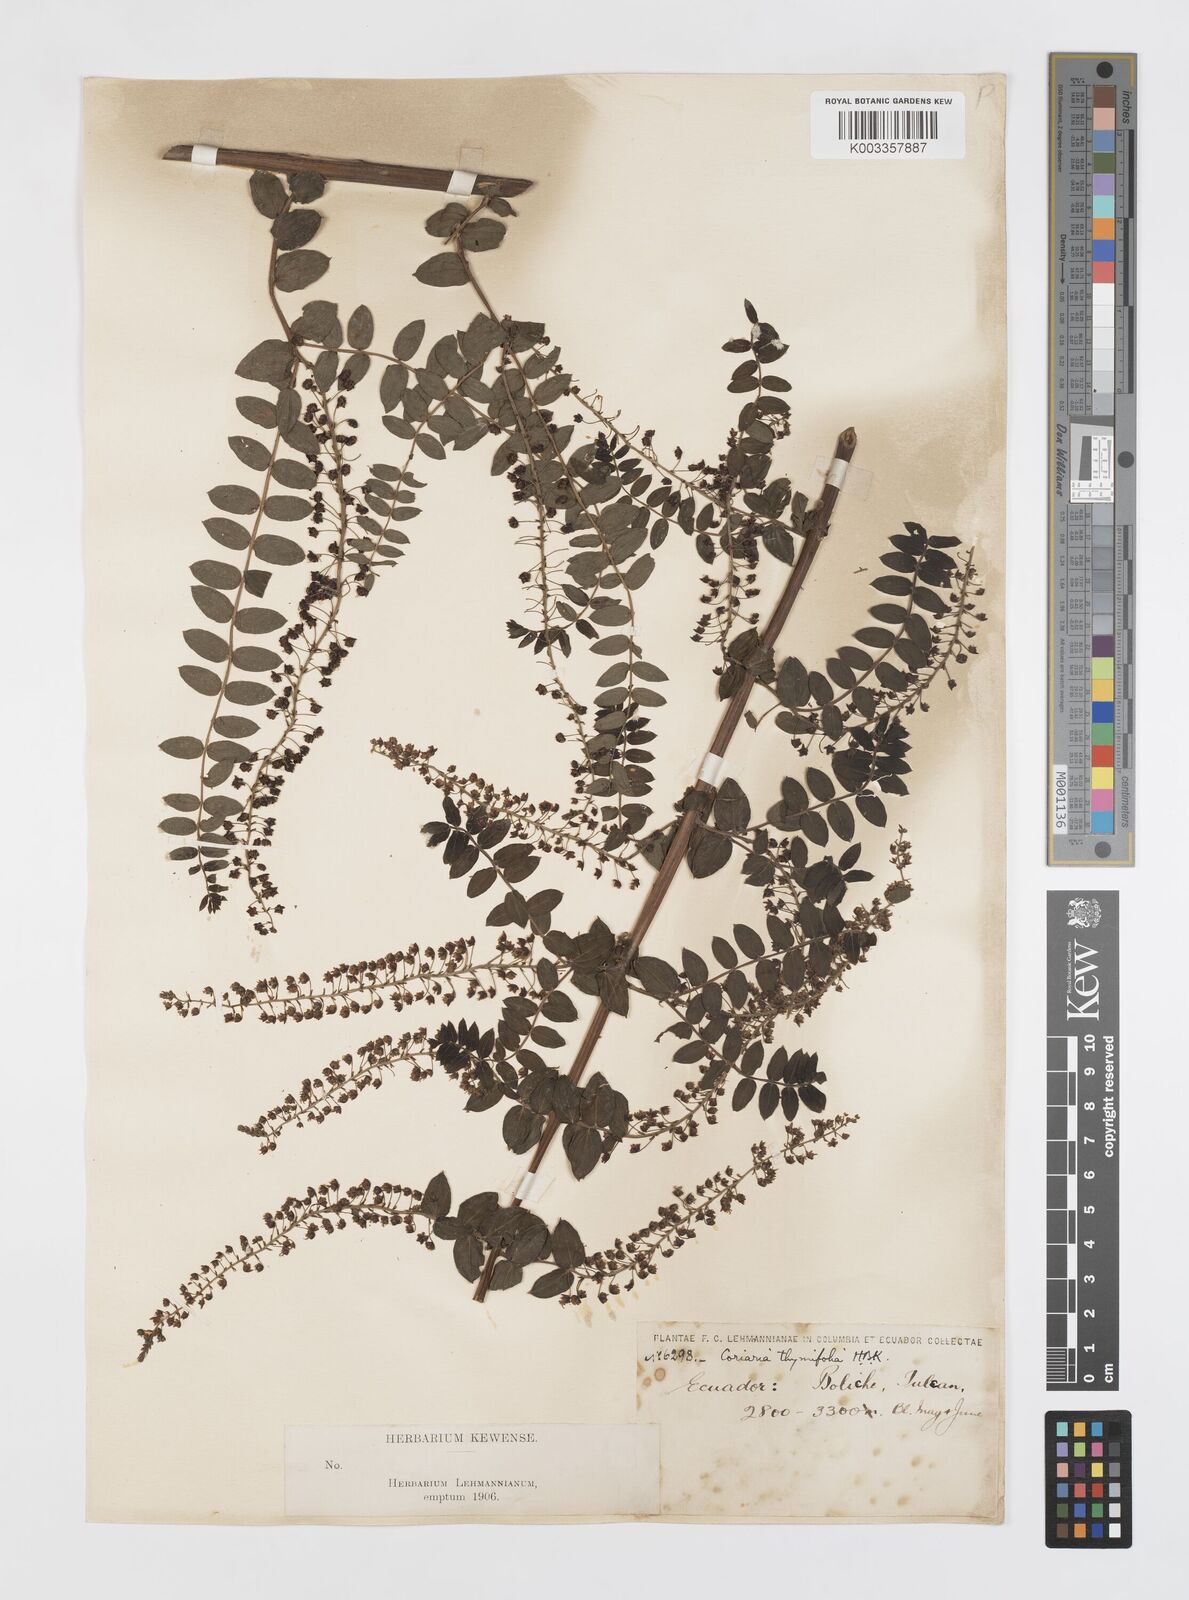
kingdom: Plantae
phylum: Tracheophyta
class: Magnoliopsida
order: Cucurbitales
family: Coriariaceae
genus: Coriaria
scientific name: Coriaria microphylla
